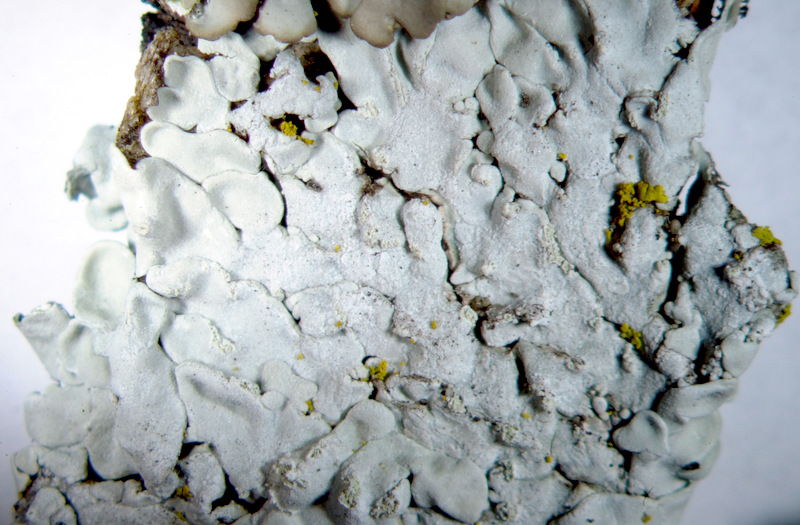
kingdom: Fungi
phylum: Ascomycota
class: Lecanoromycetes
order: Caliciales
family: Physciaceae
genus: Phaeophyscia
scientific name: Phaeophyscia orbicularis
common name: Mealy shadow lichen
